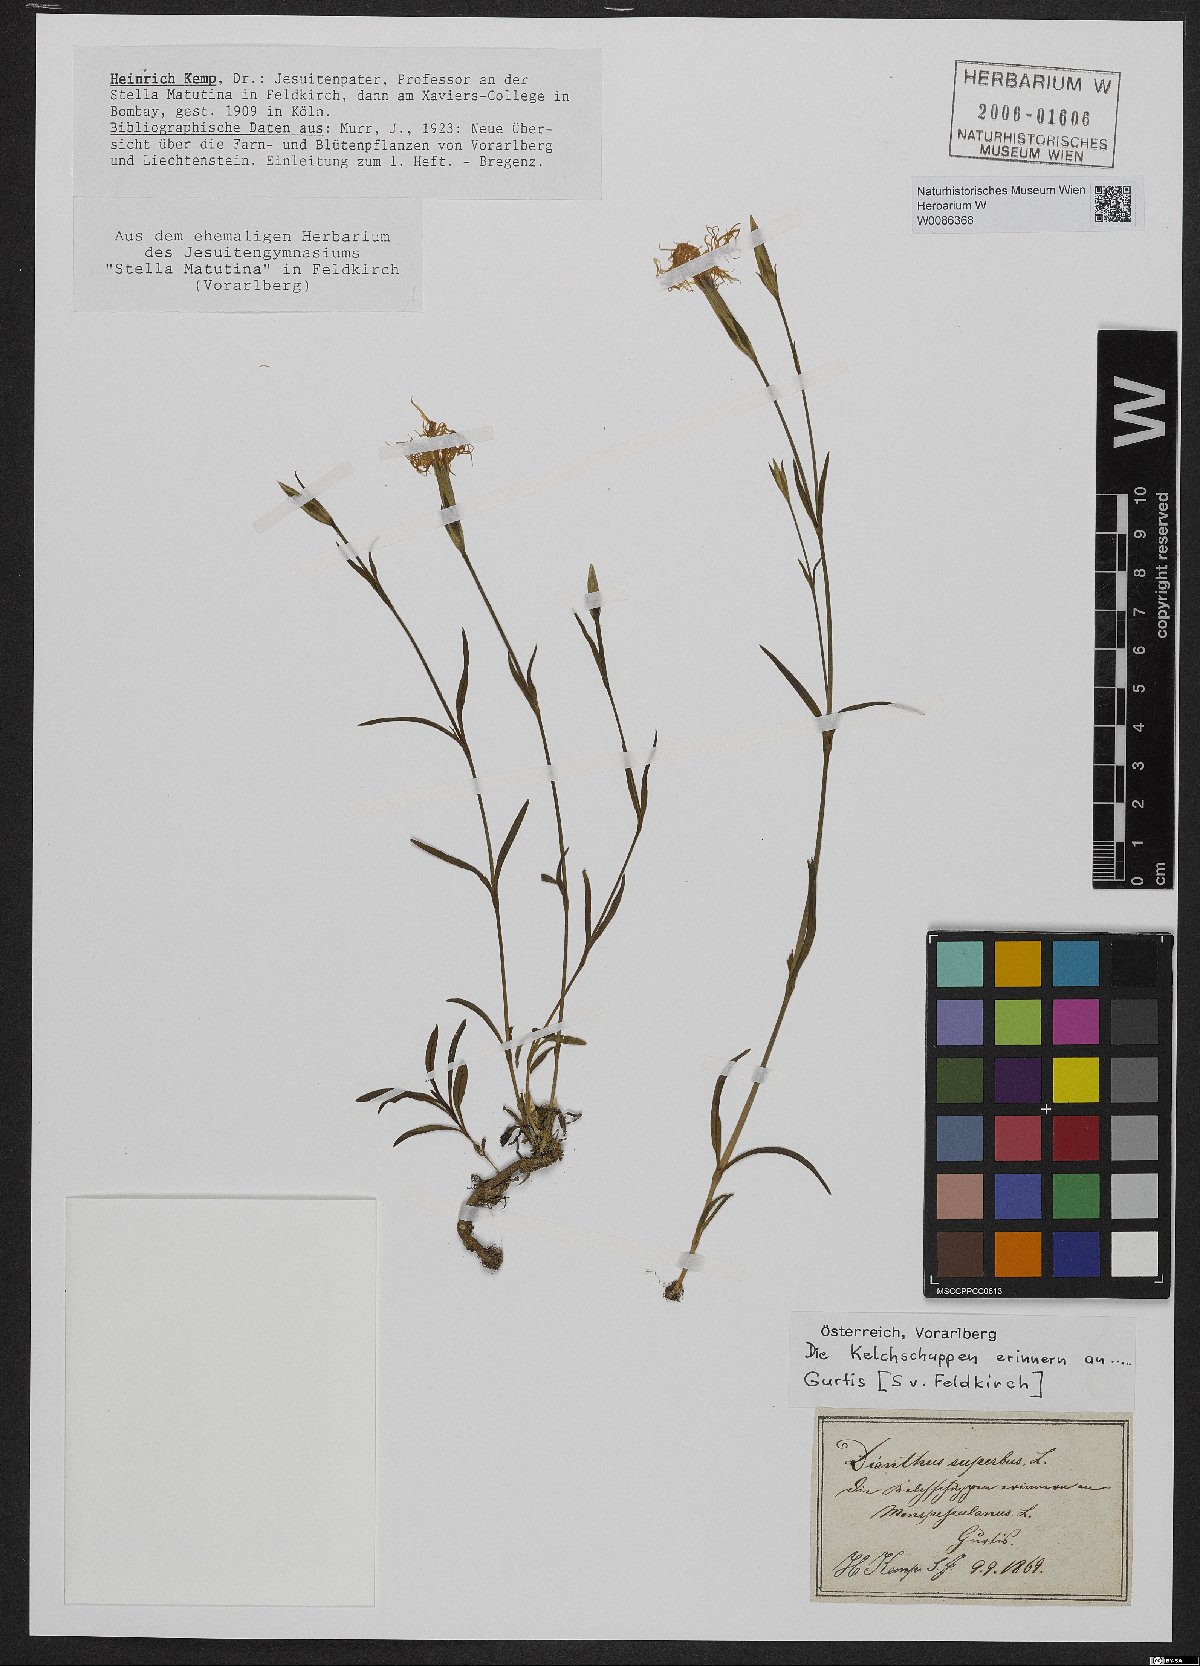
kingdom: Plantae
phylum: Tracheophyta
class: Magnoliopsida
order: Caryophyllales
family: Caryophyllaceae
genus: Dianthus
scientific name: Dianthus superbus
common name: Fringed pink
